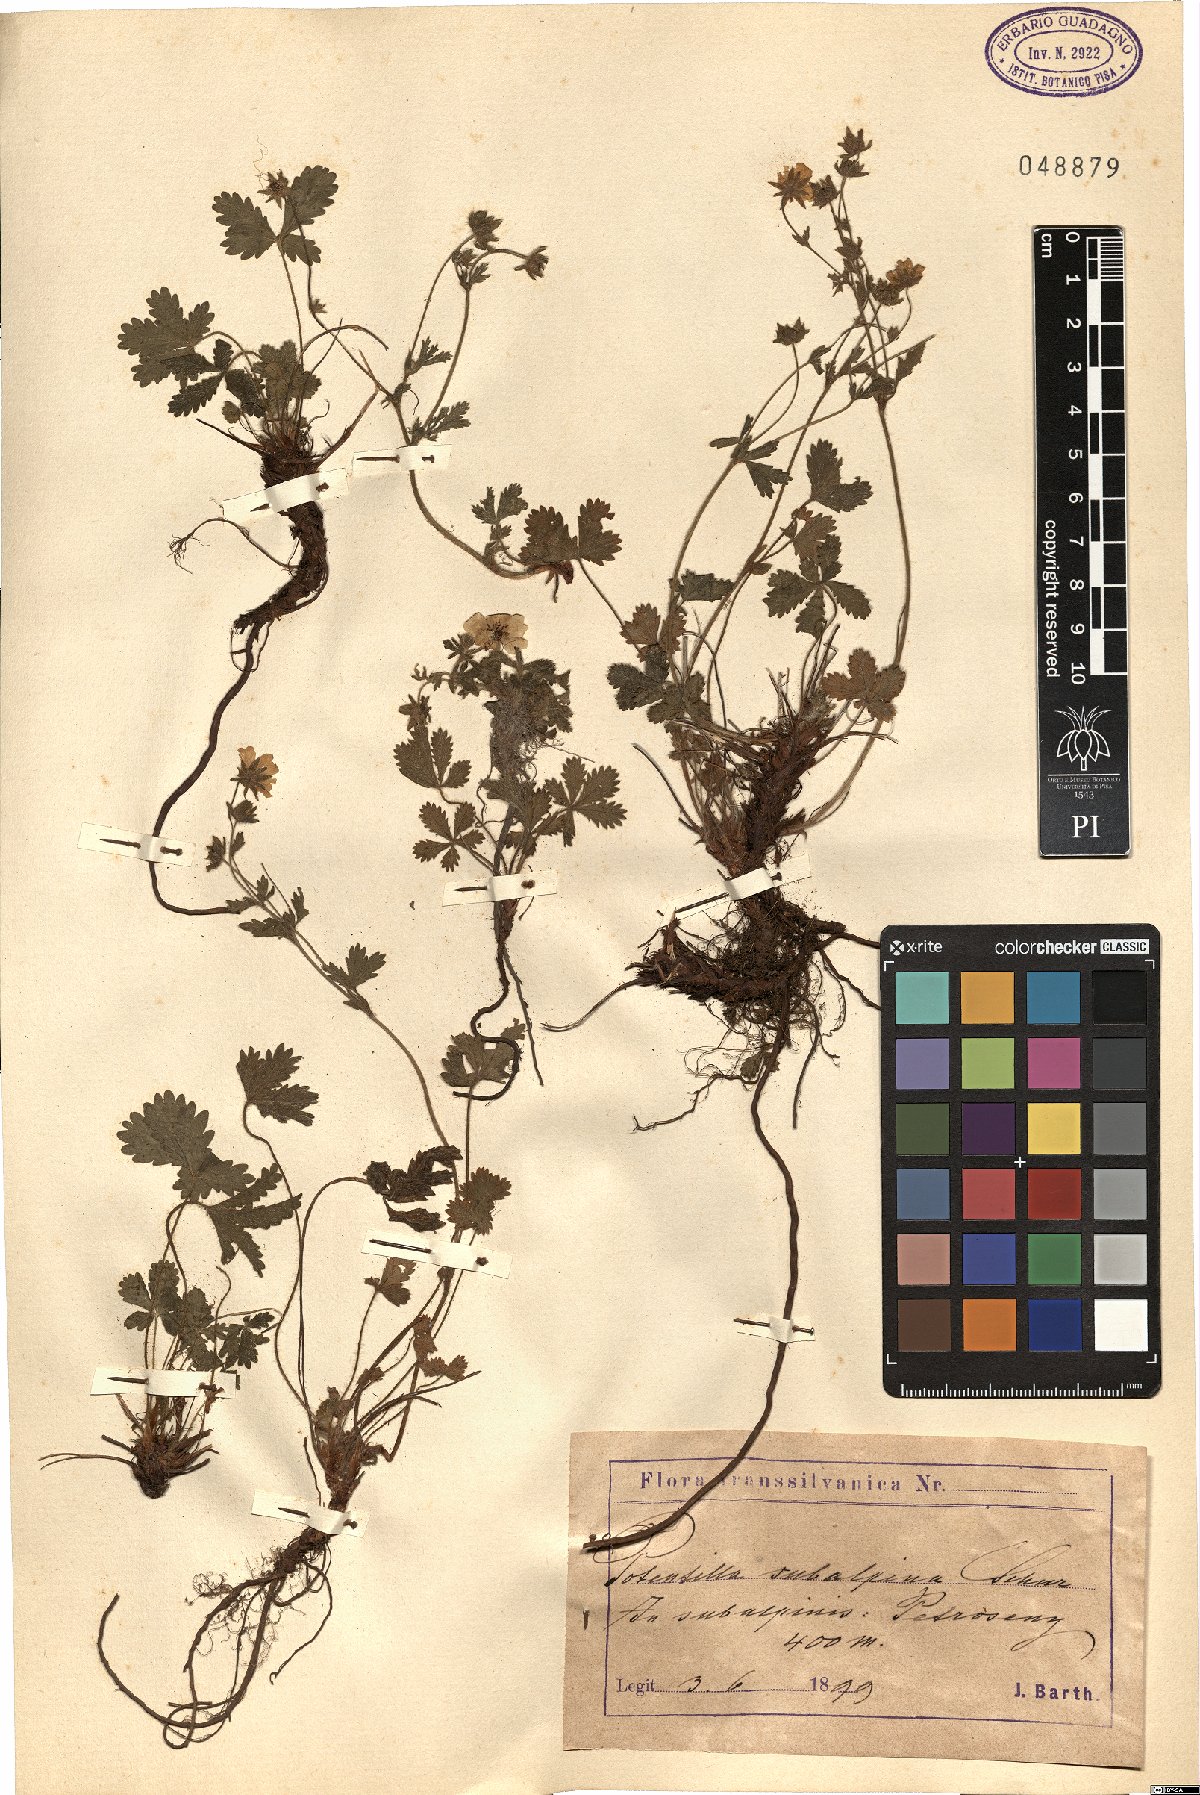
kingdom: Plantae
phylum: Tracheophyta
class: Magnoliopsida
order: Rosales
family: Rosaceae
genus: Potentilla
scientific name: Potentilla chrysantha
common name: Thuringian cinquefoil
